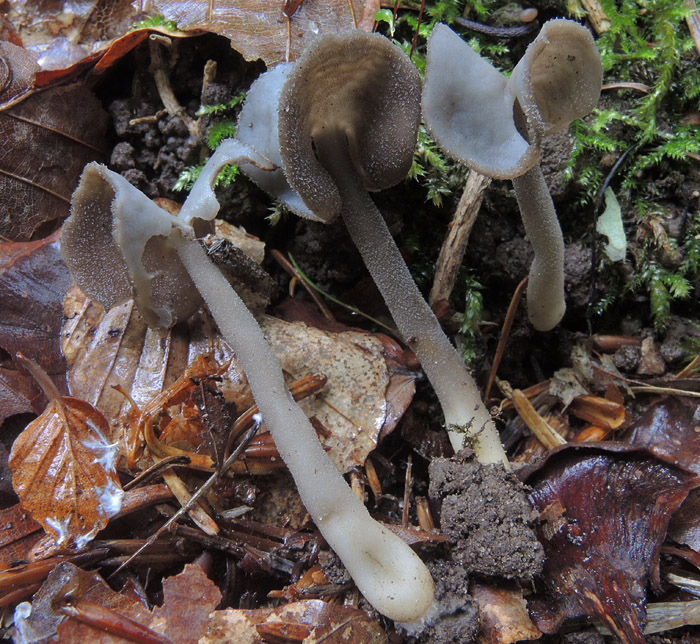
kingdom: Fungi
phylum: Ascomycota
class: Pezizomycetes
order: Pezizales
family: Helvellaceae
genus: Helvella
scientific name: Helvella sublicia
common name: saddel-foldhat
